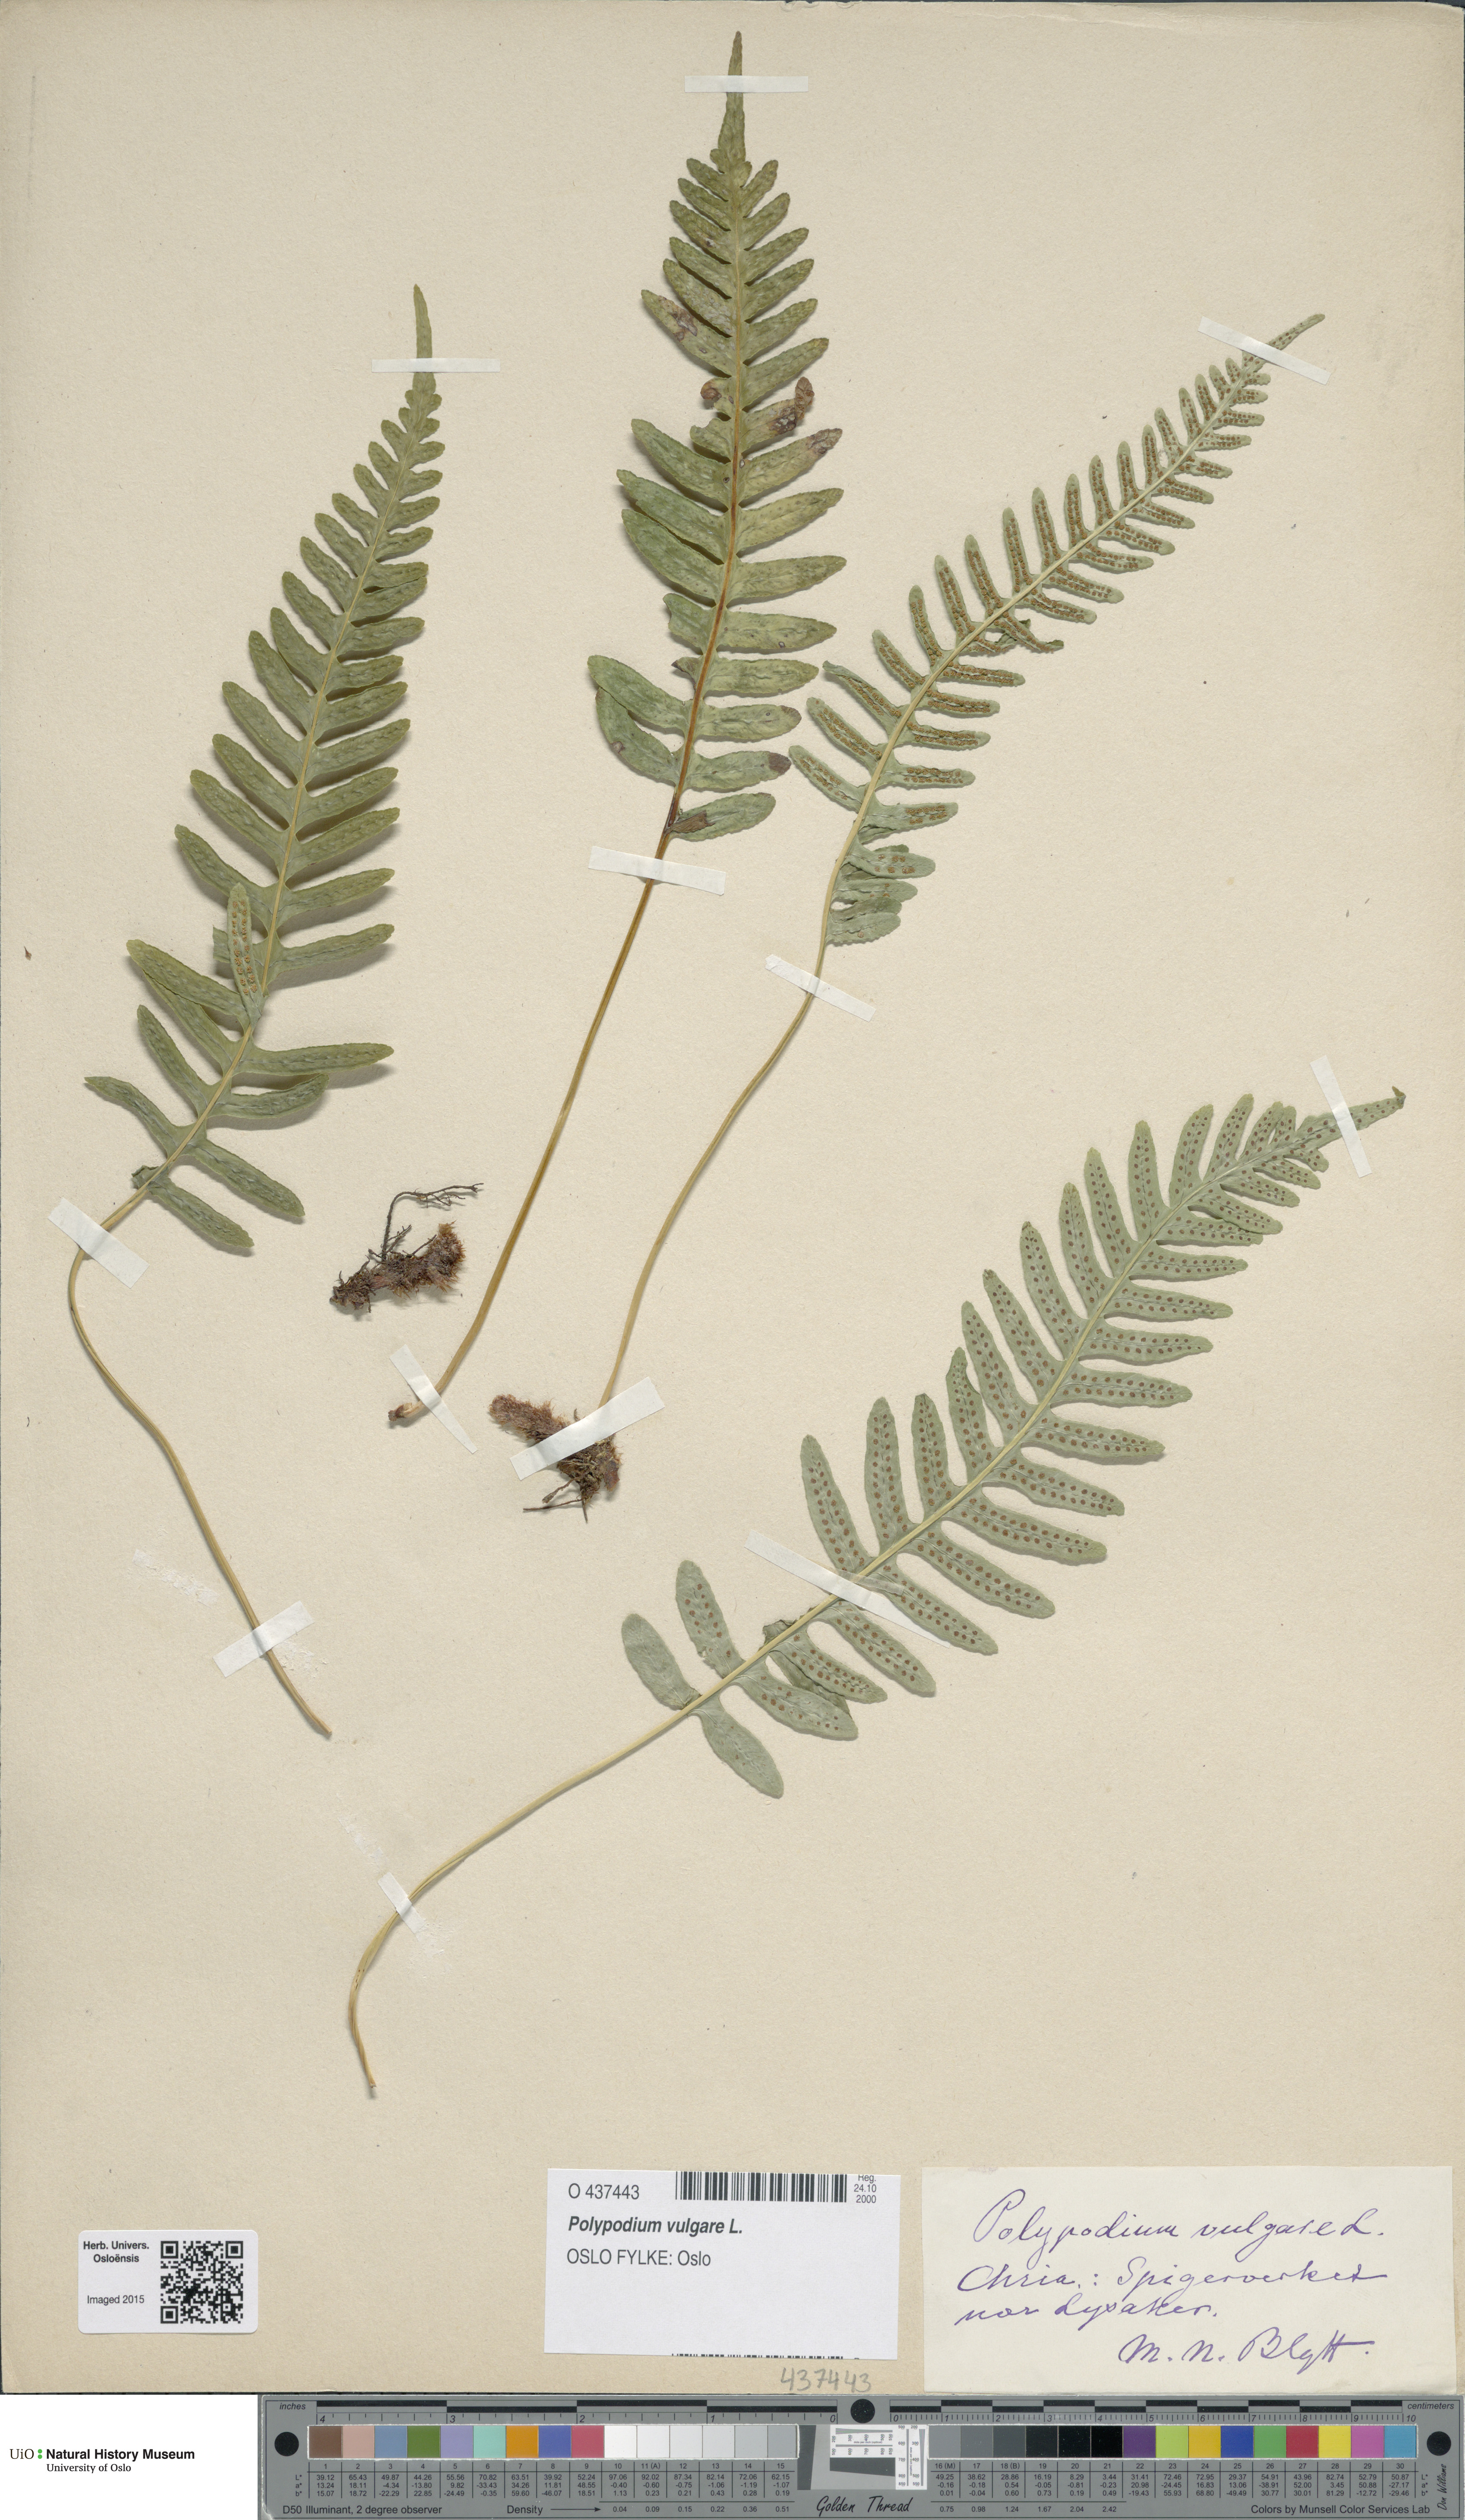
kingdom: Plantae
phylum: Tracheophyta
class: Polypodiopsida
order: Polypodiales
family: Polypodiaceae
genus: Polypodium
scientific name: Polypodium vulgare
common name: Common polypody
